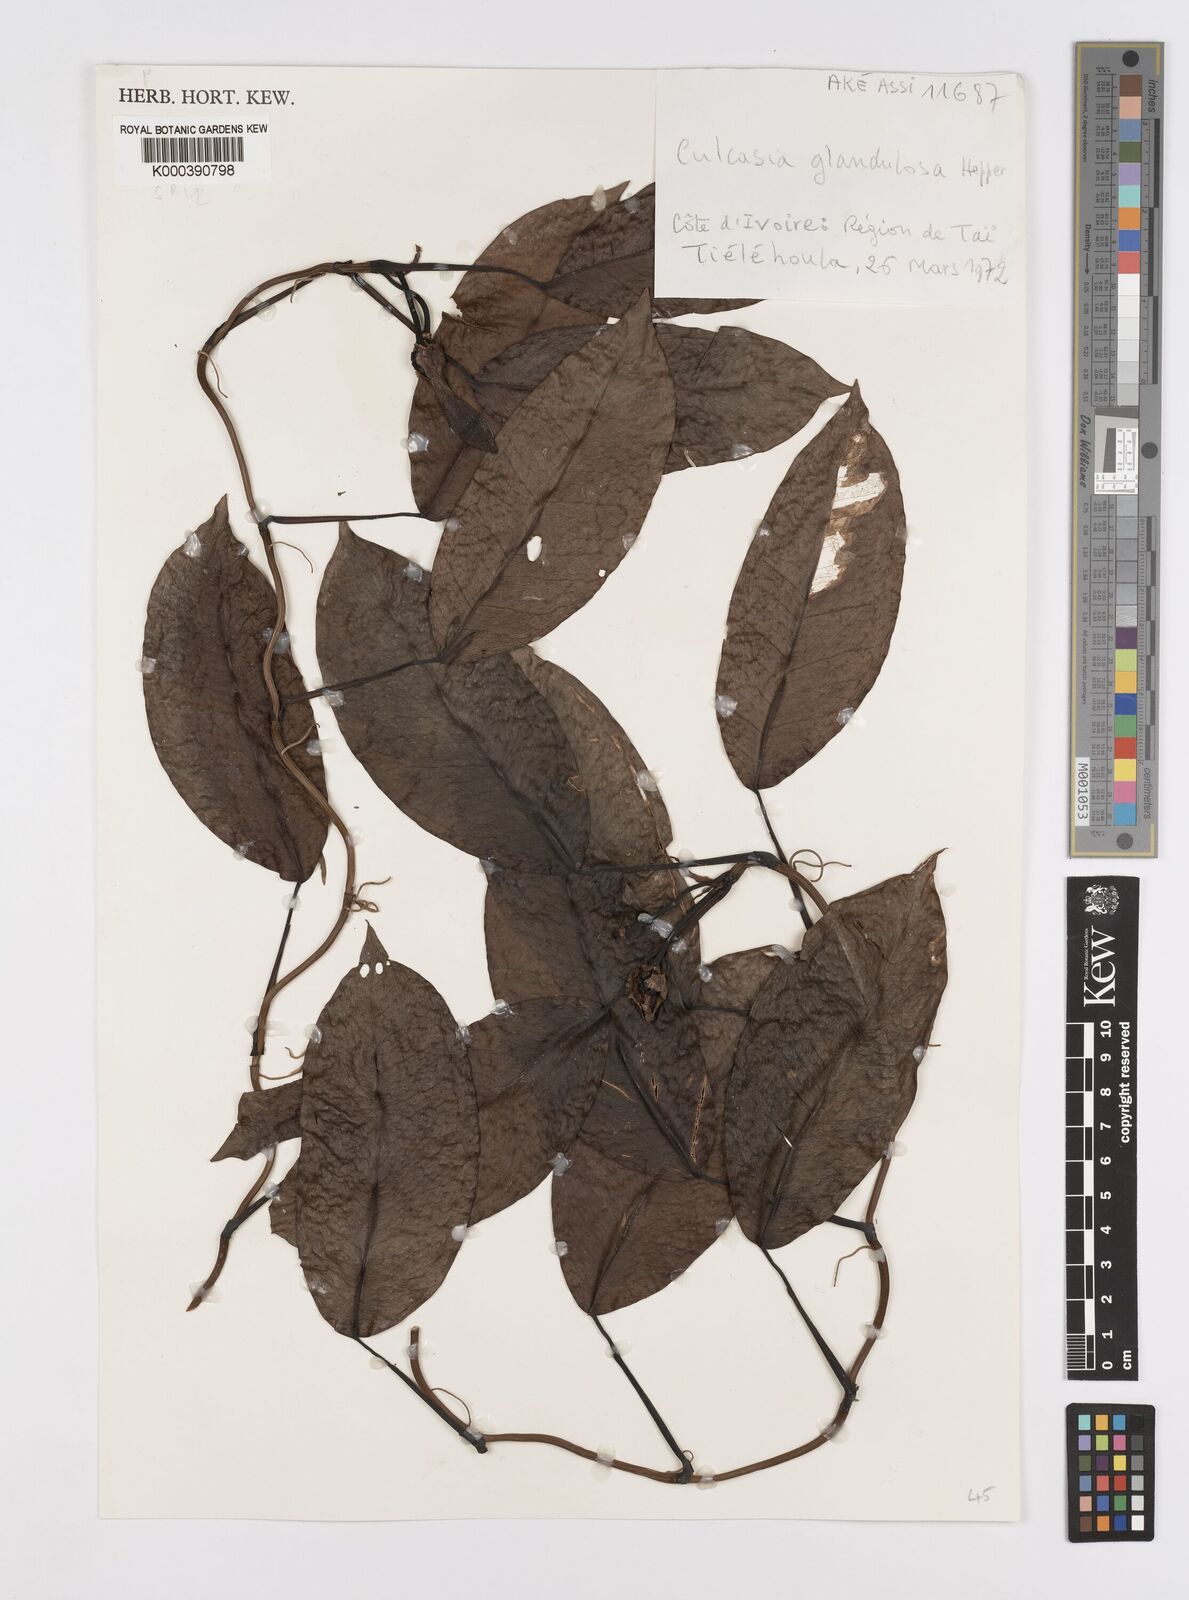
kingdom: Plantae
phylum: Tracheophyta
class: Liliopsida
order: Alismatales
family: Araceae
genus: Culcasia
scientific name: Culcasia glandulosa
